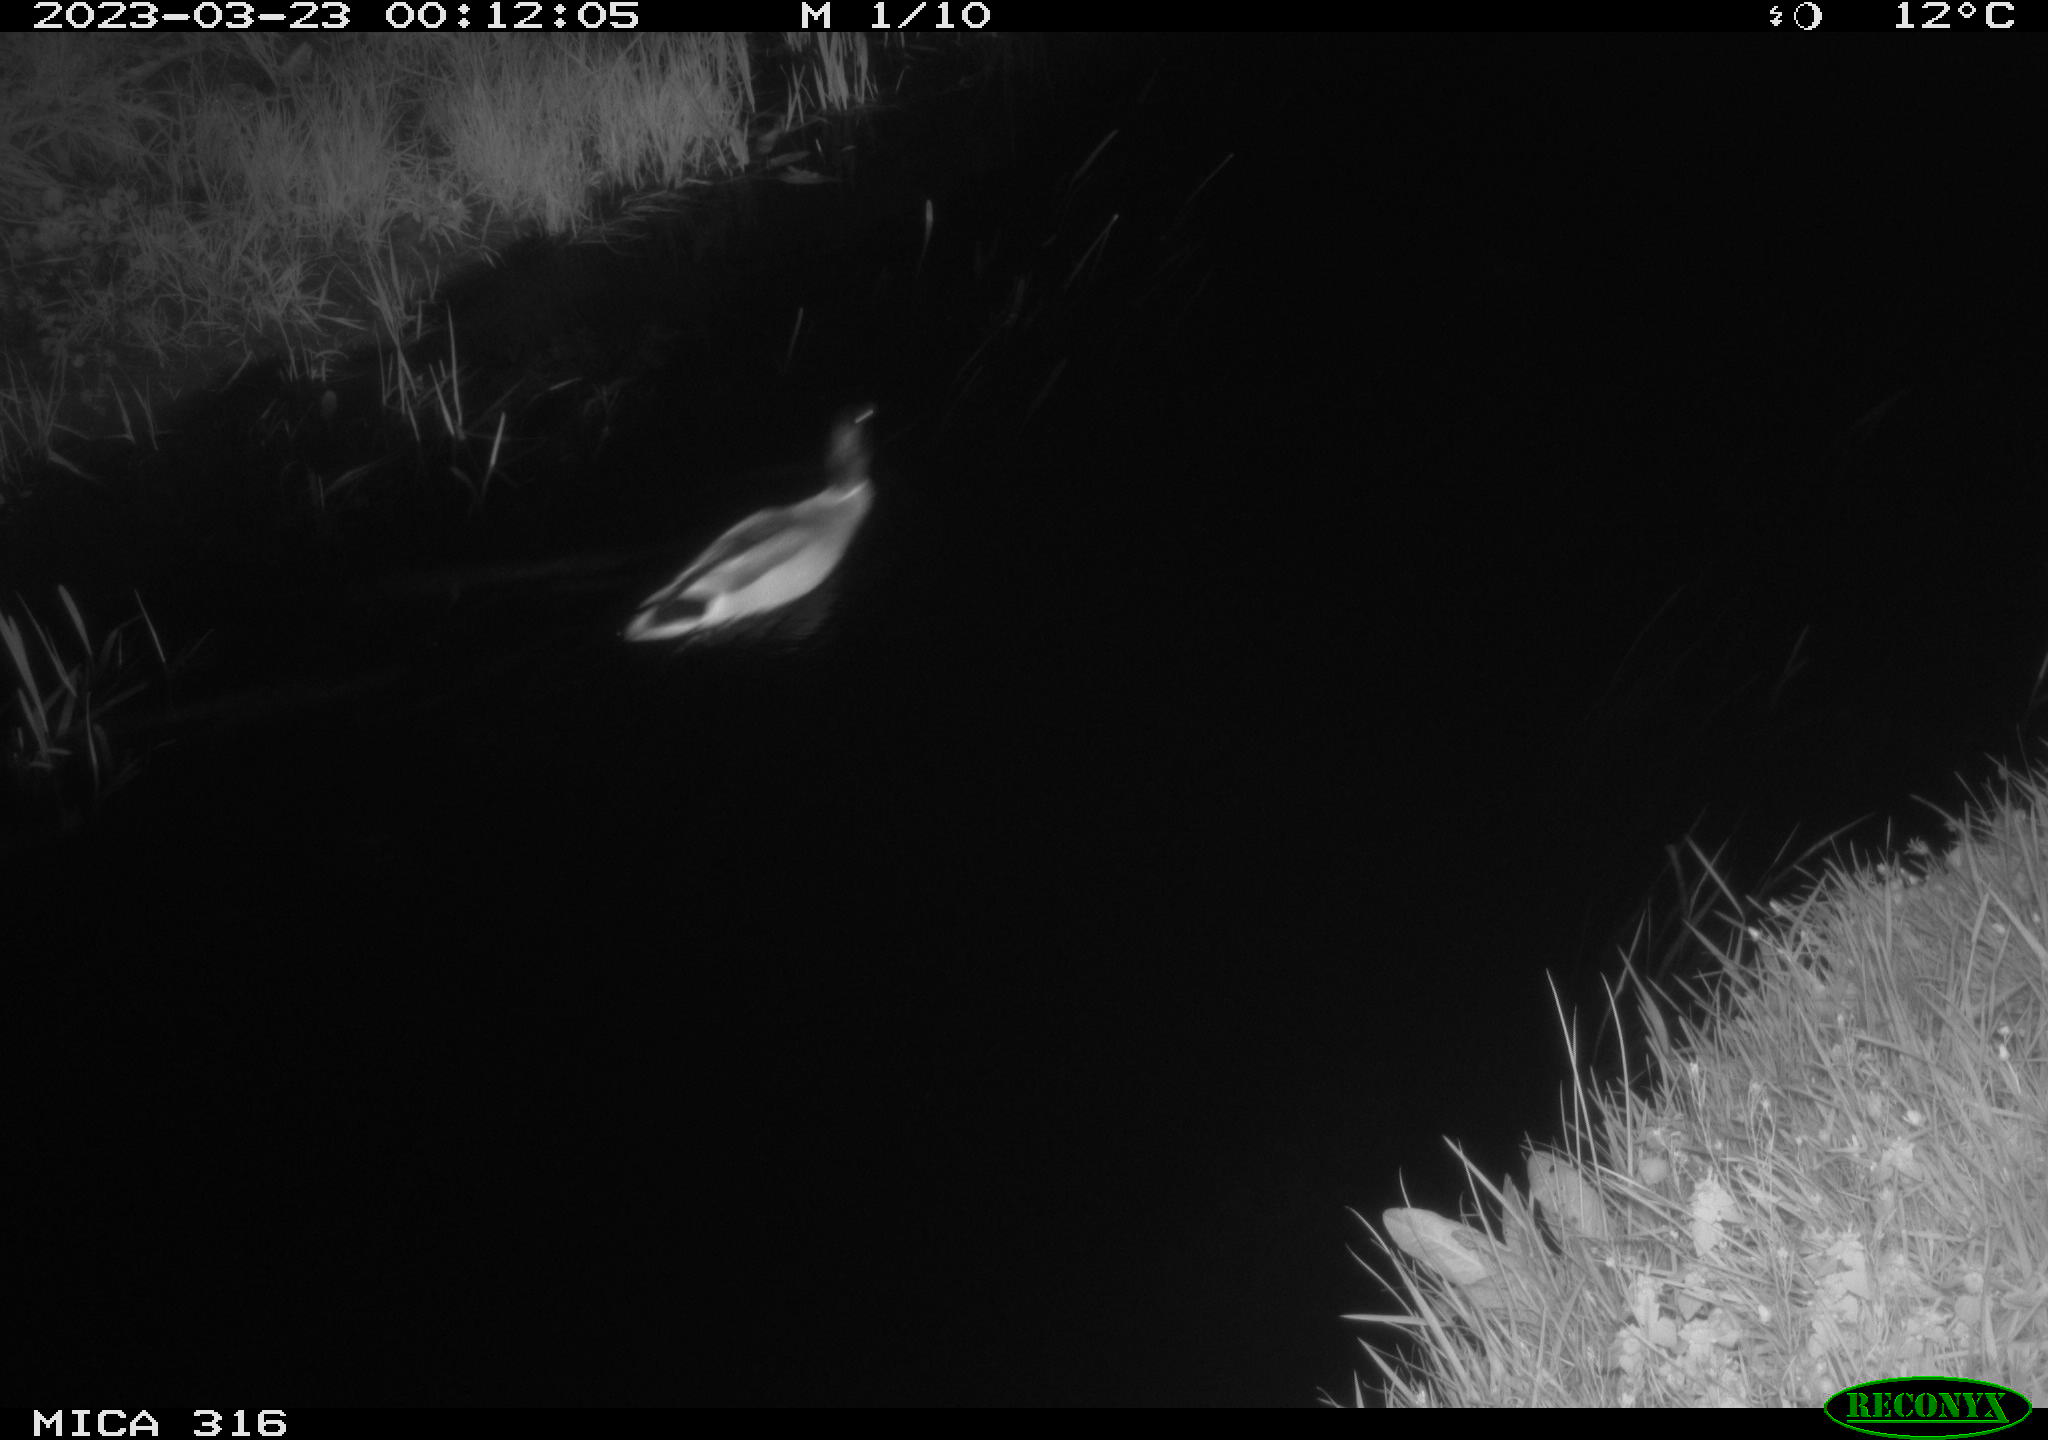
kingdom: Animalia
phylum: Chordata
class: Aves
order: Anseriformes
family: Anatidae
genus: Anas
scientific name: Anas
